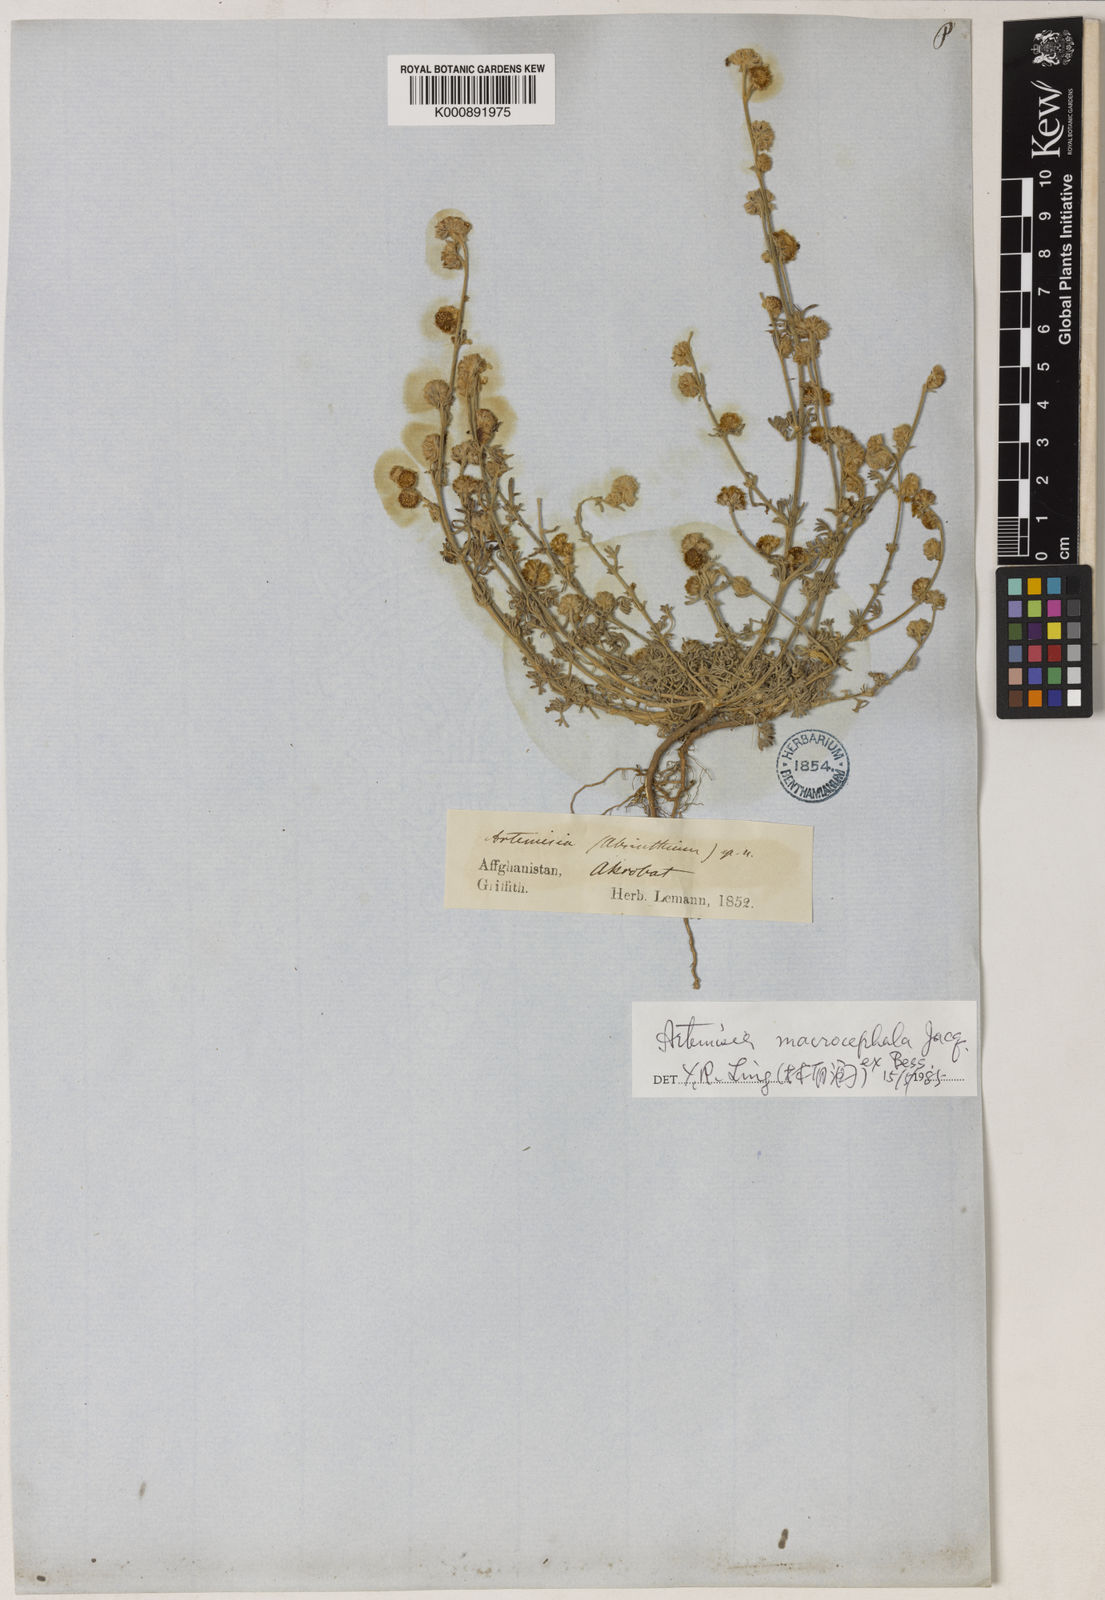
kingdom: Plantae
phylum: Tracheophyta
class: Magnoliopsida
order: Asterales
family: Asteraceae
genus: Artemisia
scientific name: Artemisia macrocephala
